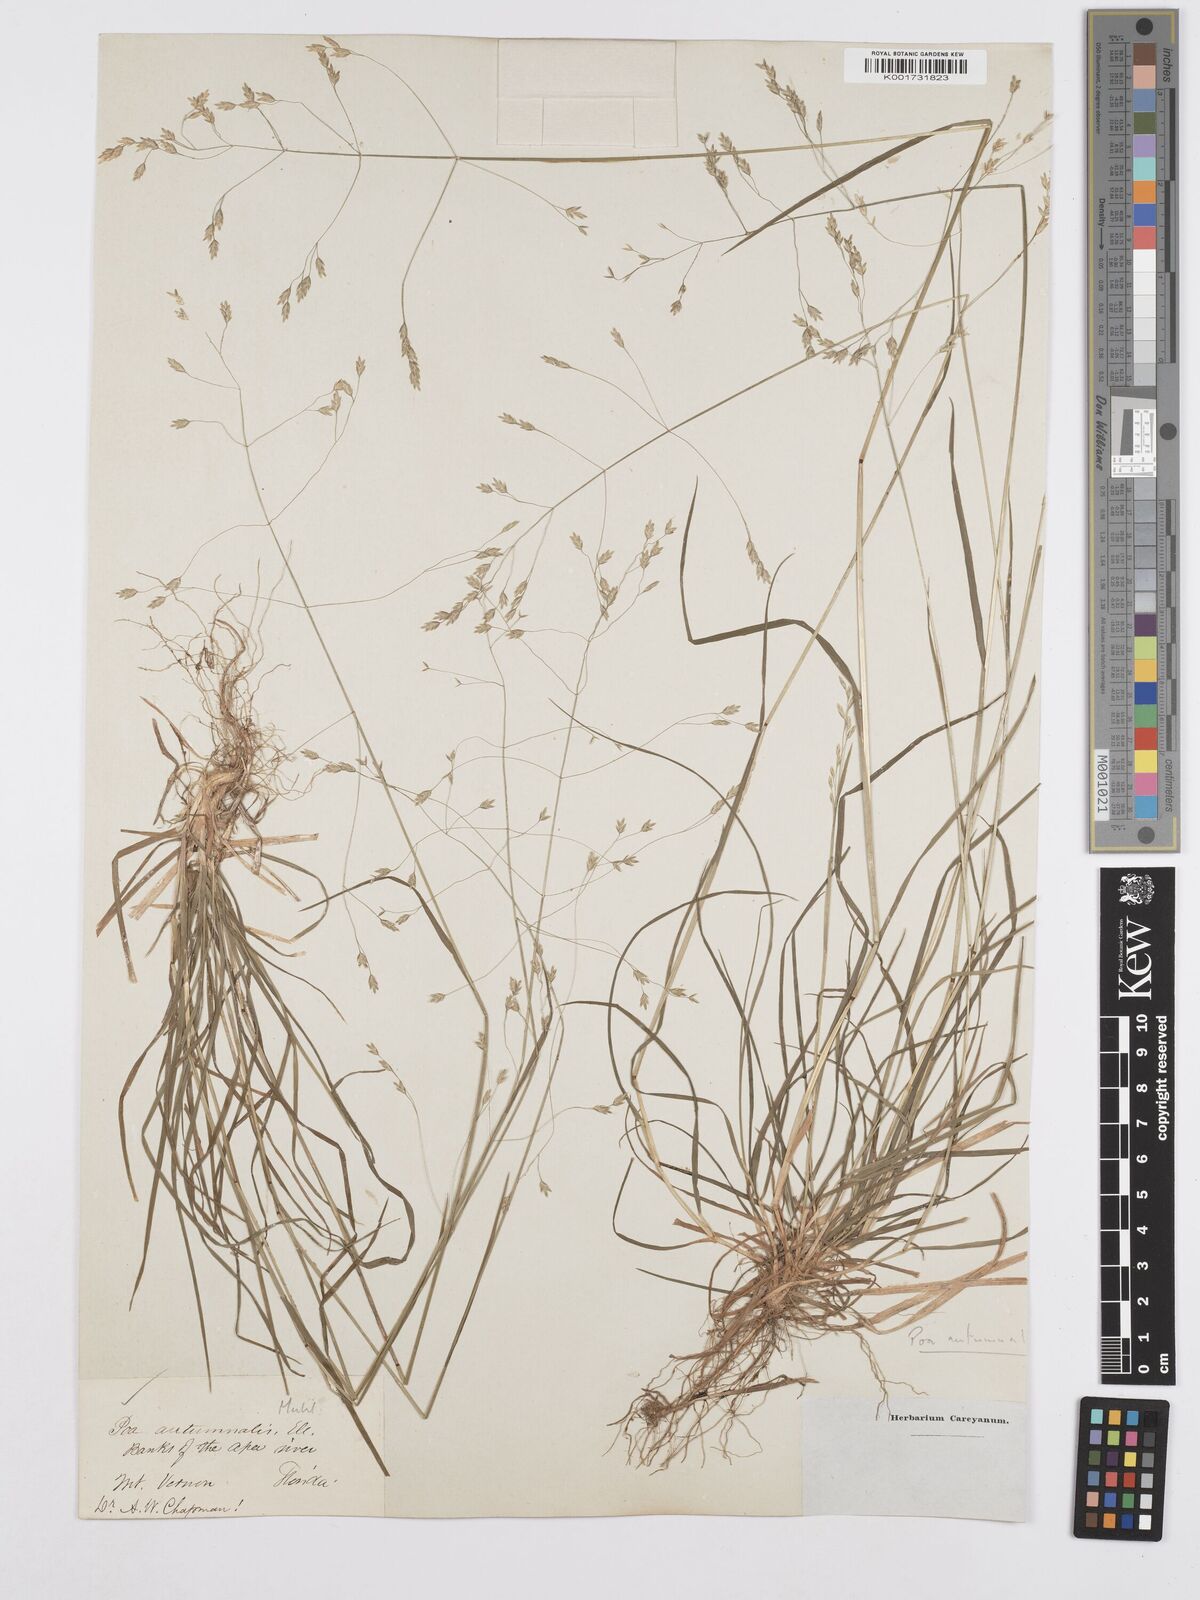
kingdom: Plantae
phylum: Tracheophyta
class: Liliopsida
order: Poales
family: Poaceae
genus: Poa
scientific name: Poa autumnalis
